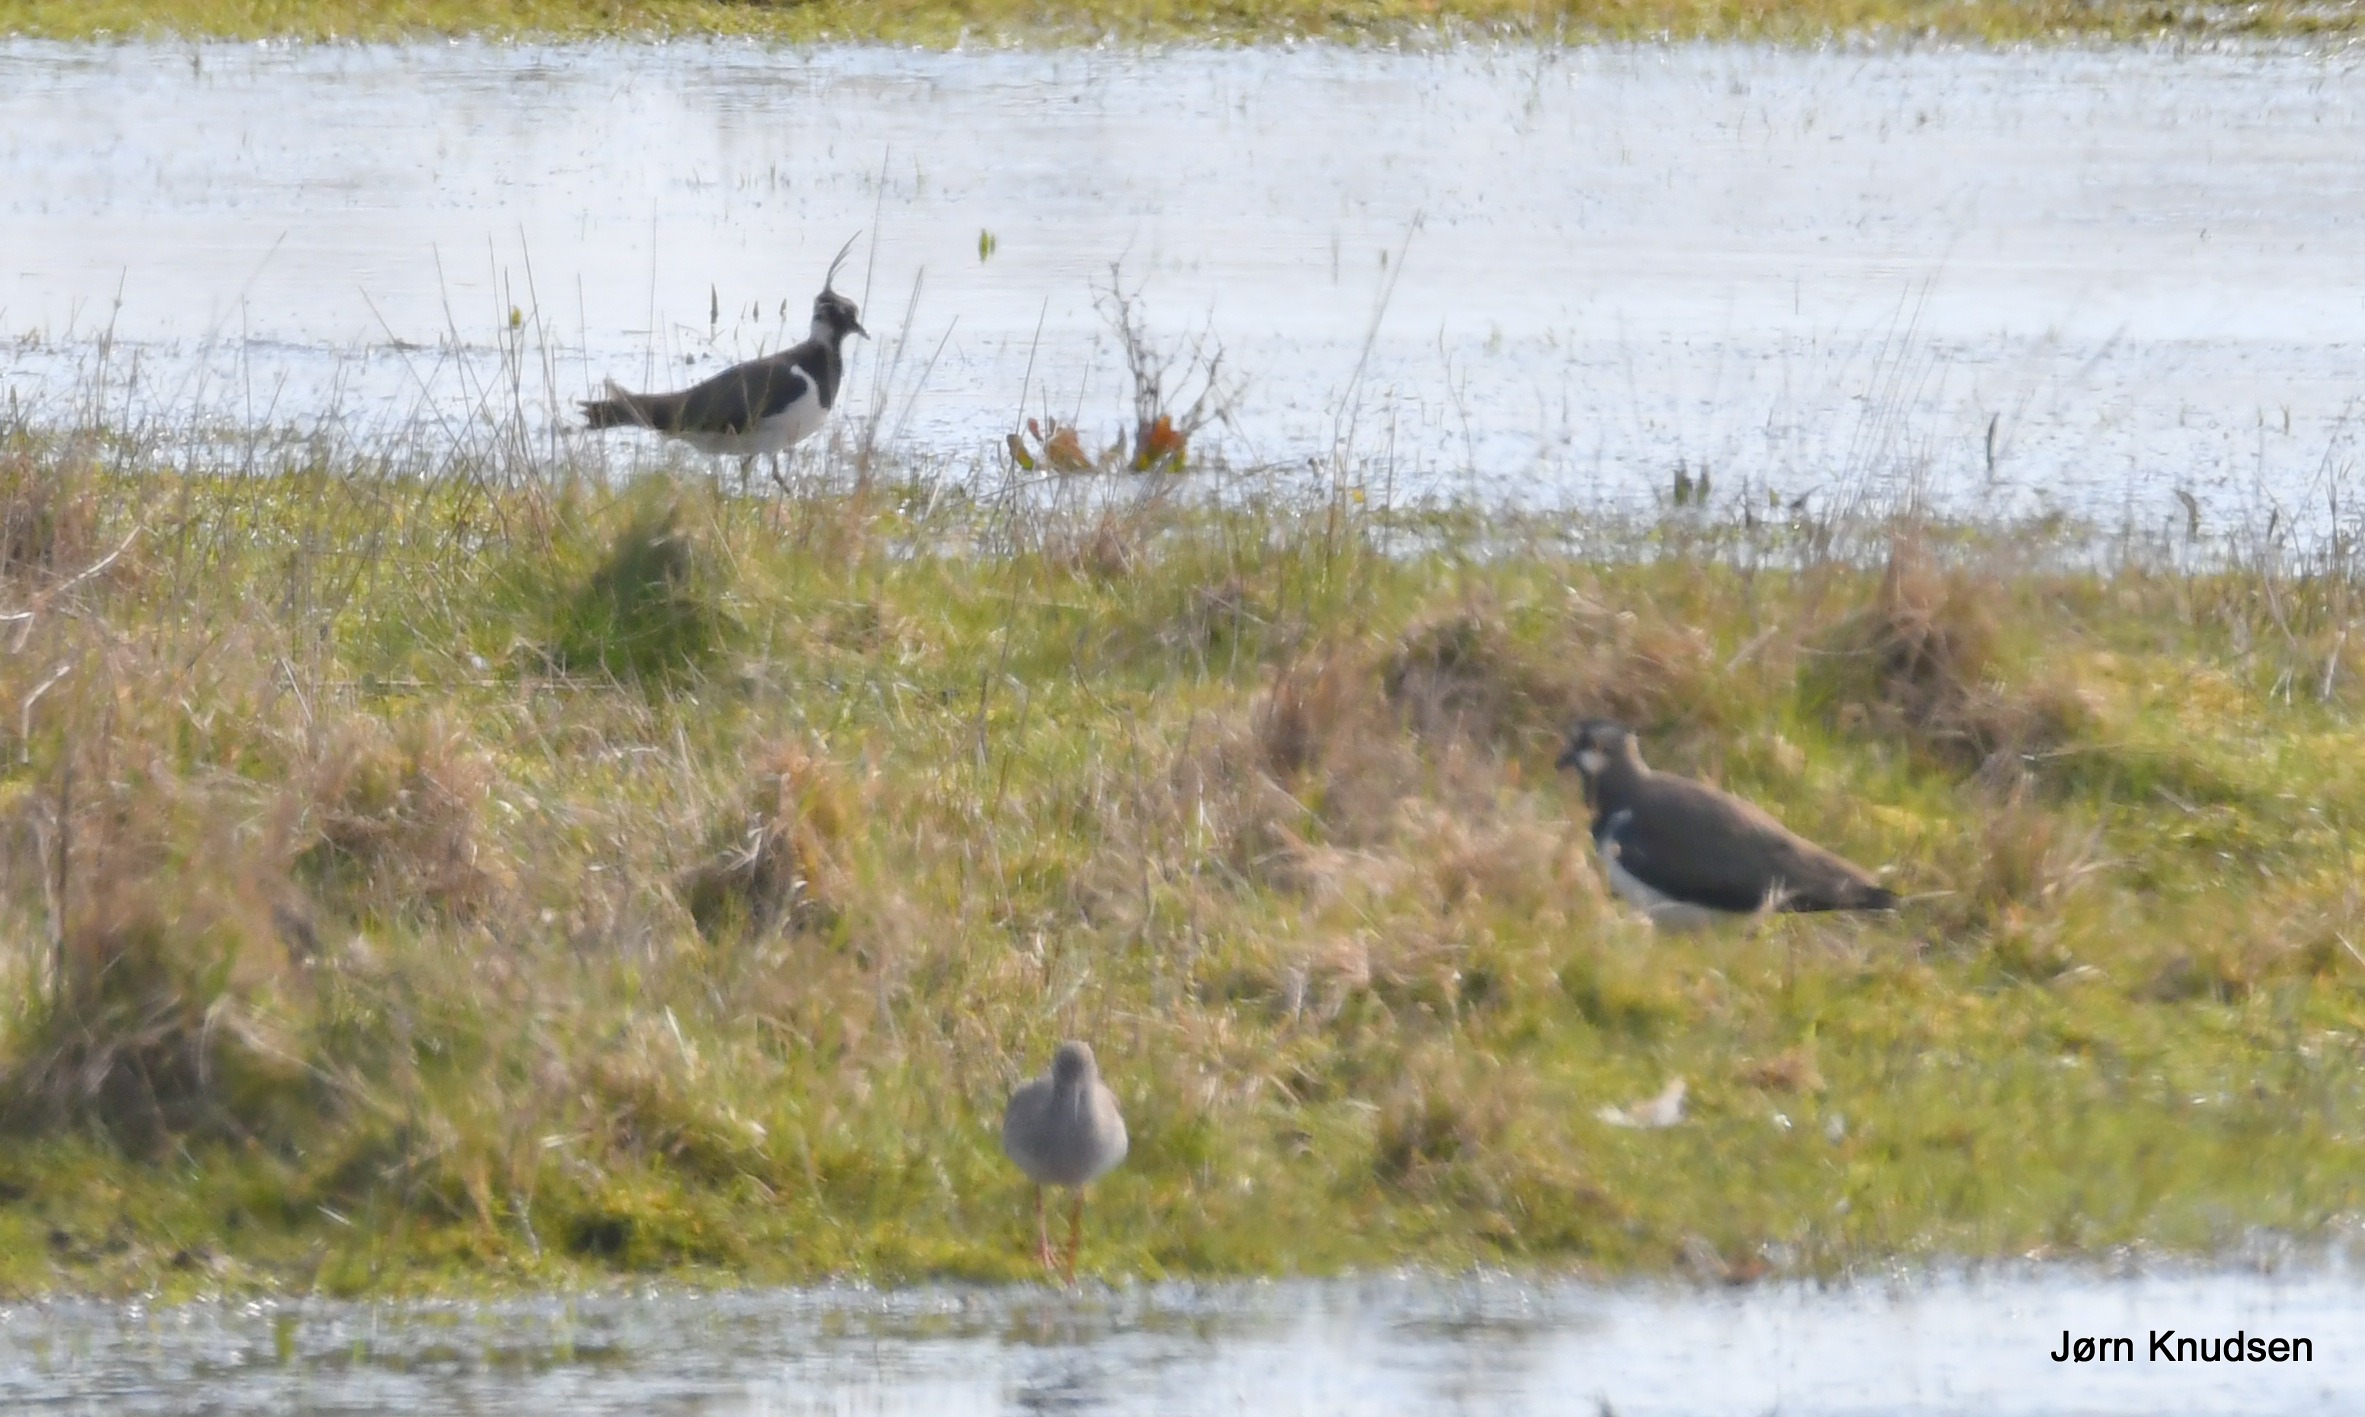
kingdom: Animalia
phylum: Chordata
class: Aves
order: Charadriiformes
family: Charadriidae
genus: Vanellus
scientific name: Vanellus vanellus
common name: Vibe
